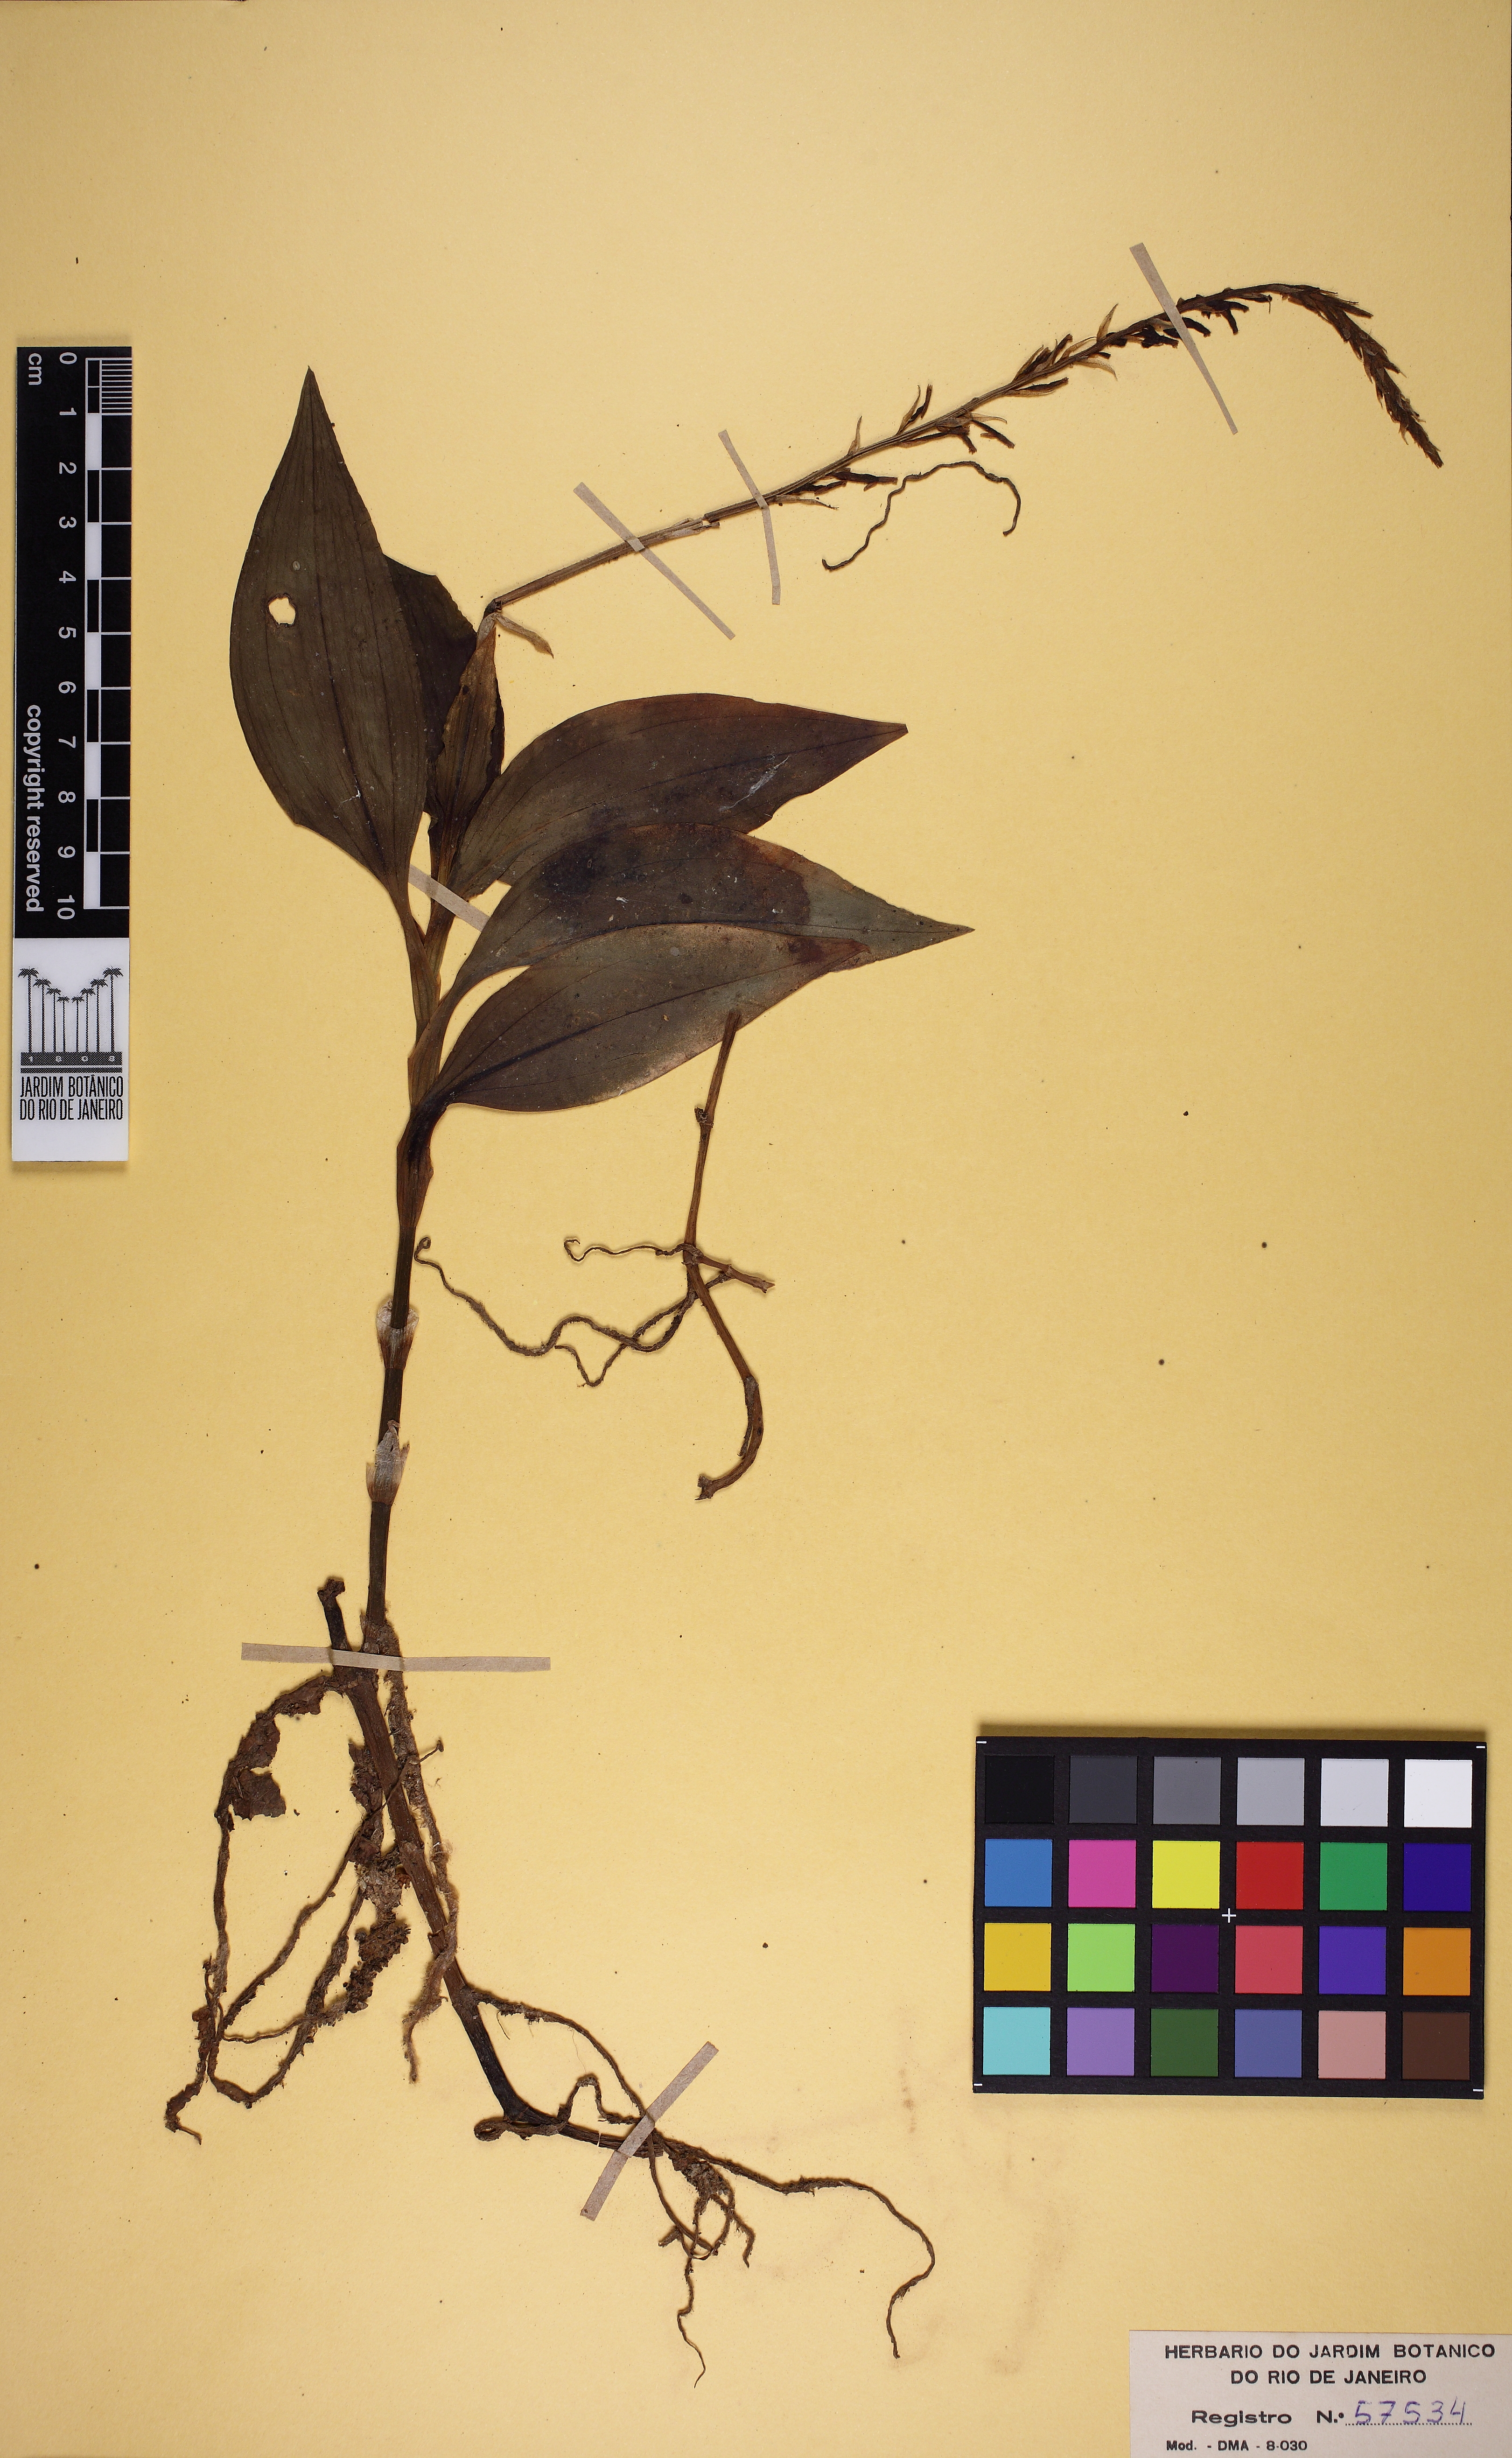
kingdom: Plantae
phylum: Tracheophyta
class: Liliopsida
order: Asparagales
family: Orchidaceae
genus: Microchilus
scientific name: Microchilus arietinus
